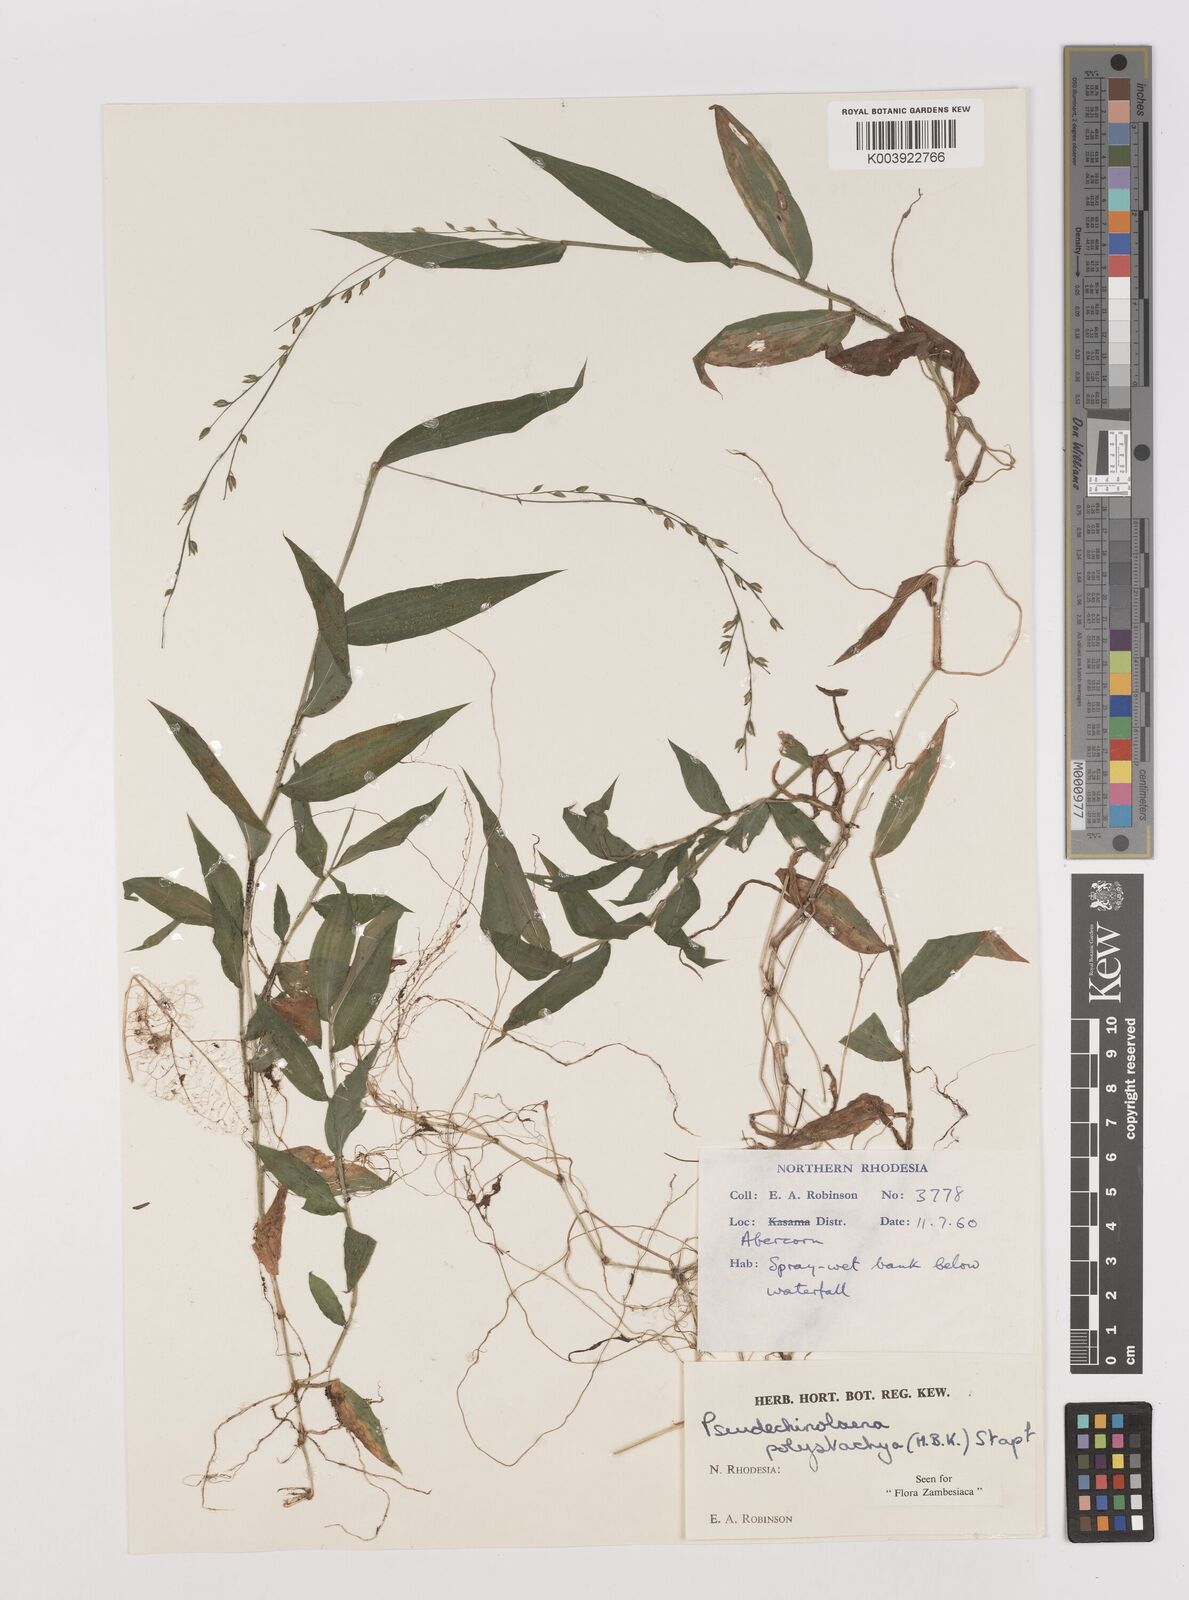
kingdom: Plantae
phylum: Tracheophyta
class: Liliopsida
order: Poales
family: Poaceae
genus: Pseudechinolaena
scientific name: Pseudechinolaena polystachya
